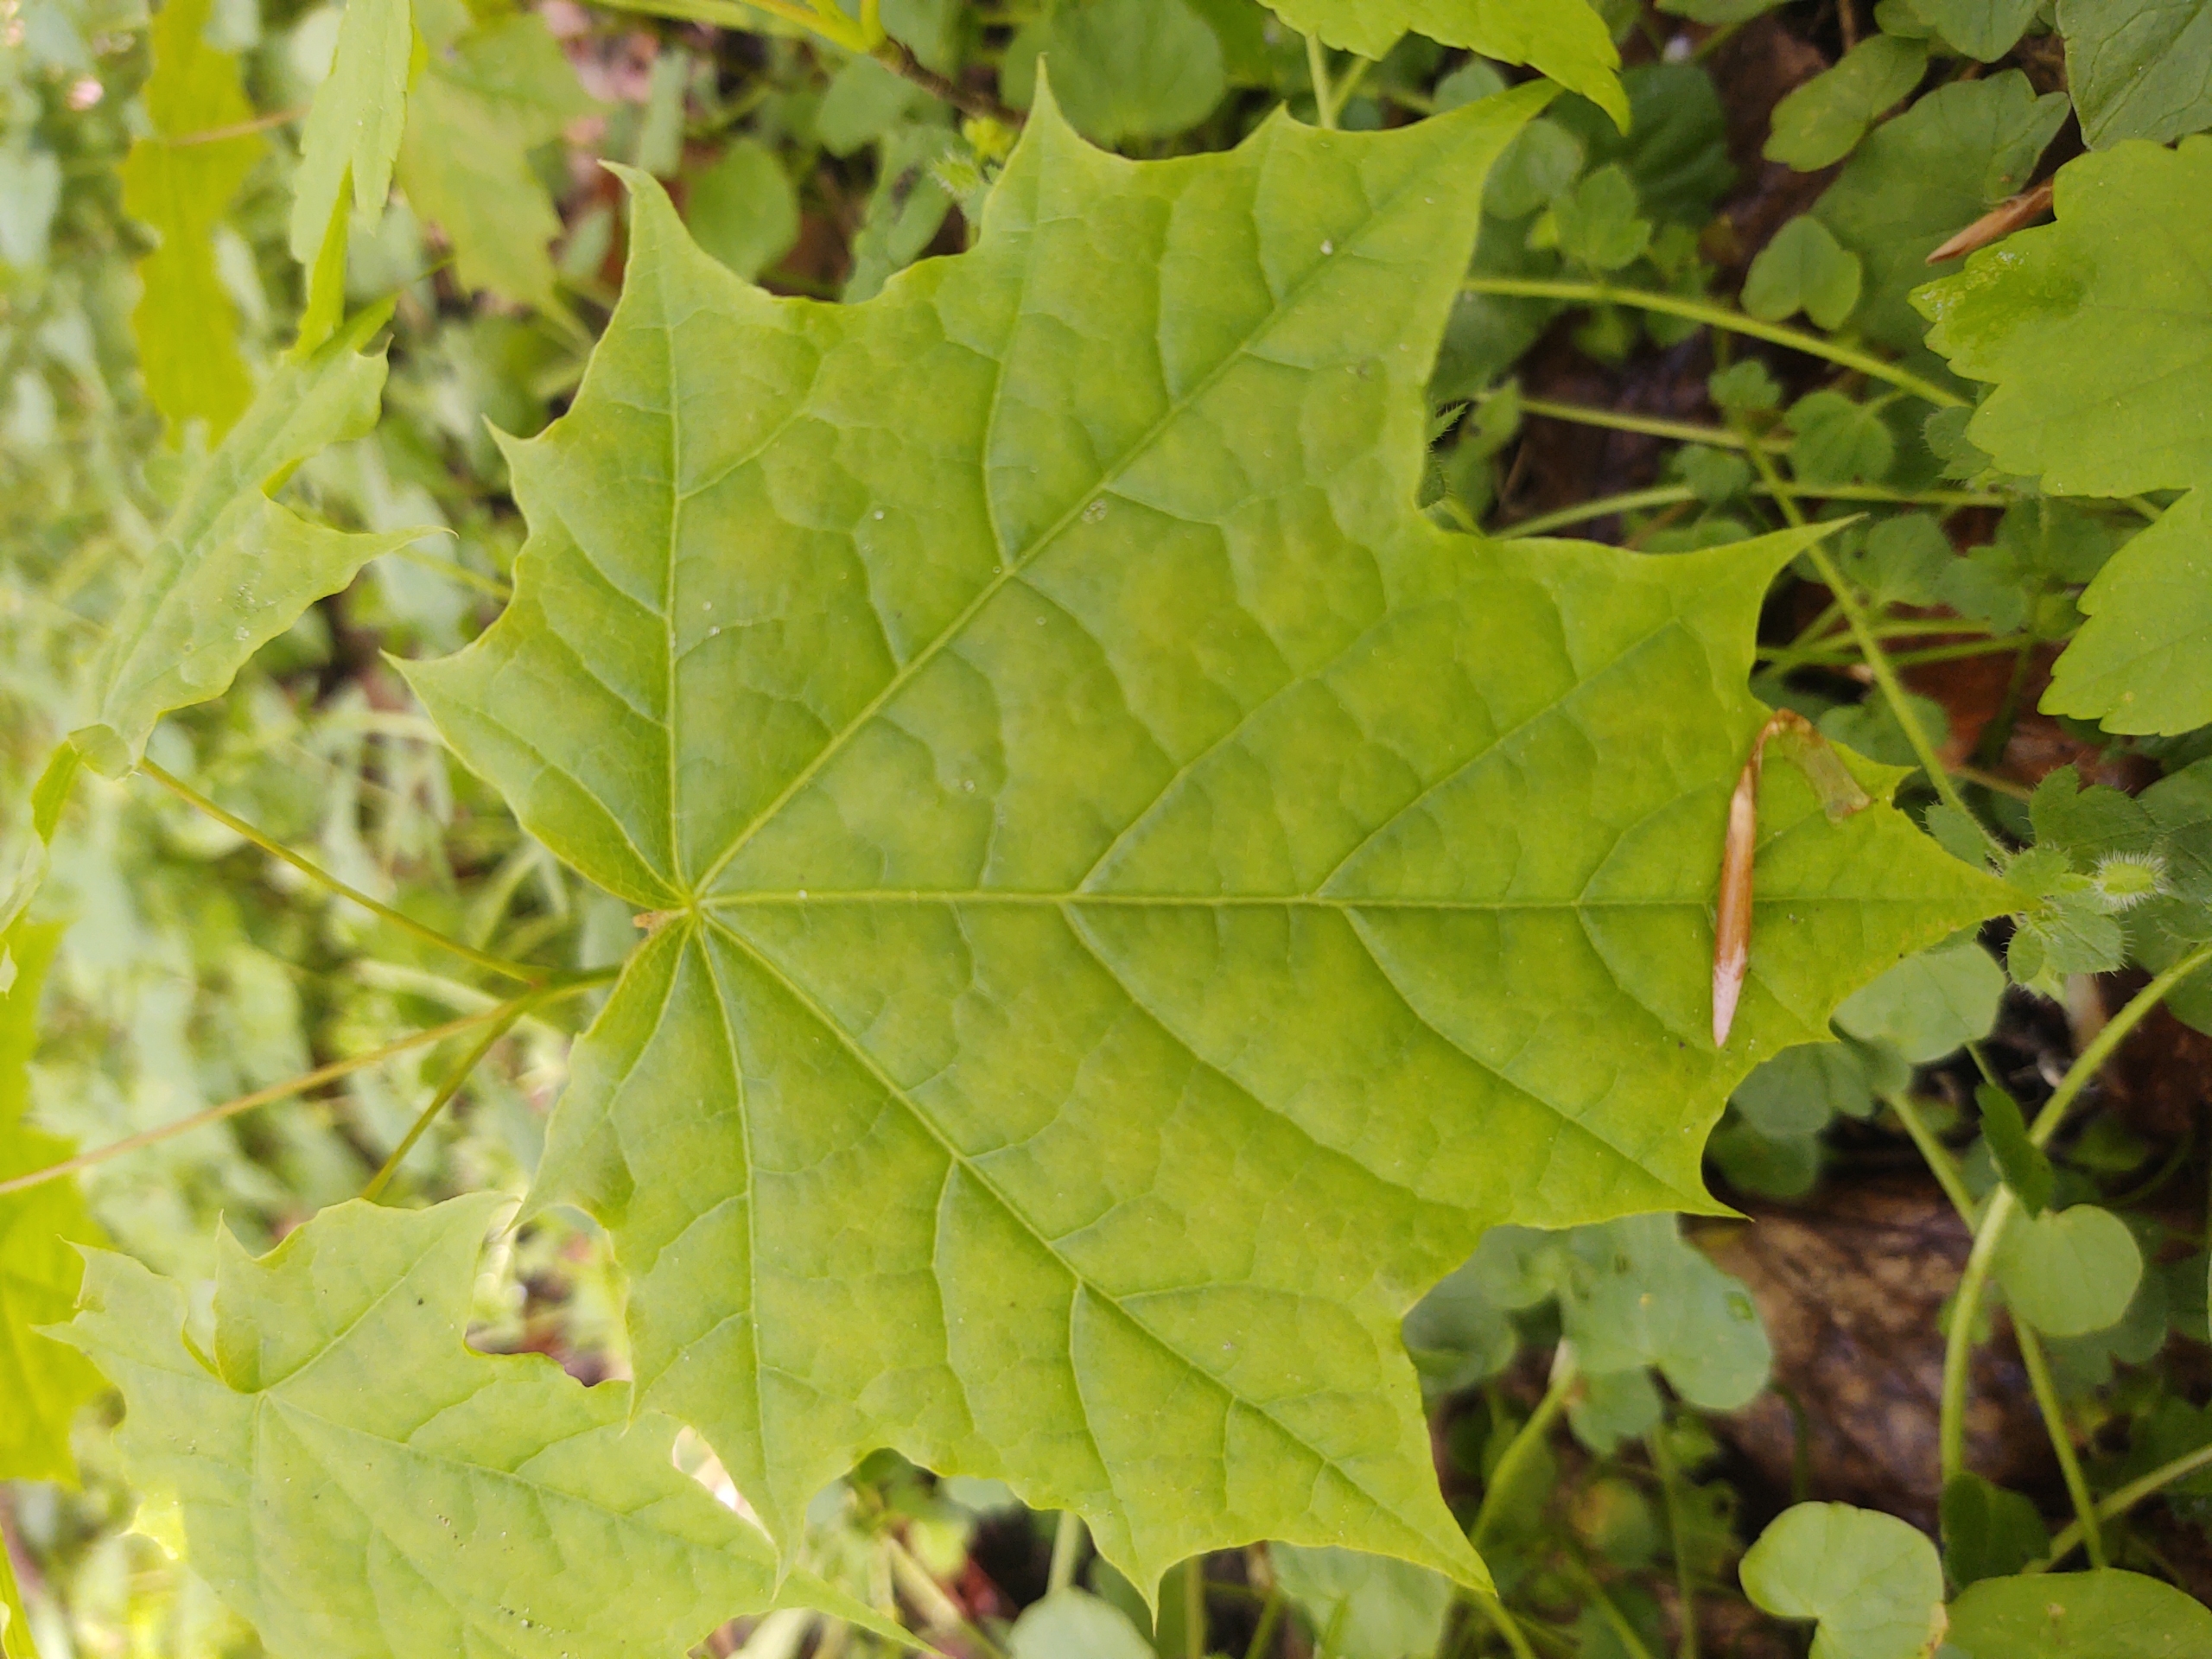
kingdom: Plantae
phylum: Tracheophyta
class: Magnoliopsida
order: Sapindales
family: Sapindaceae
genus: Acer
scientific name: Acer platanoides
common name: Spids-løn
